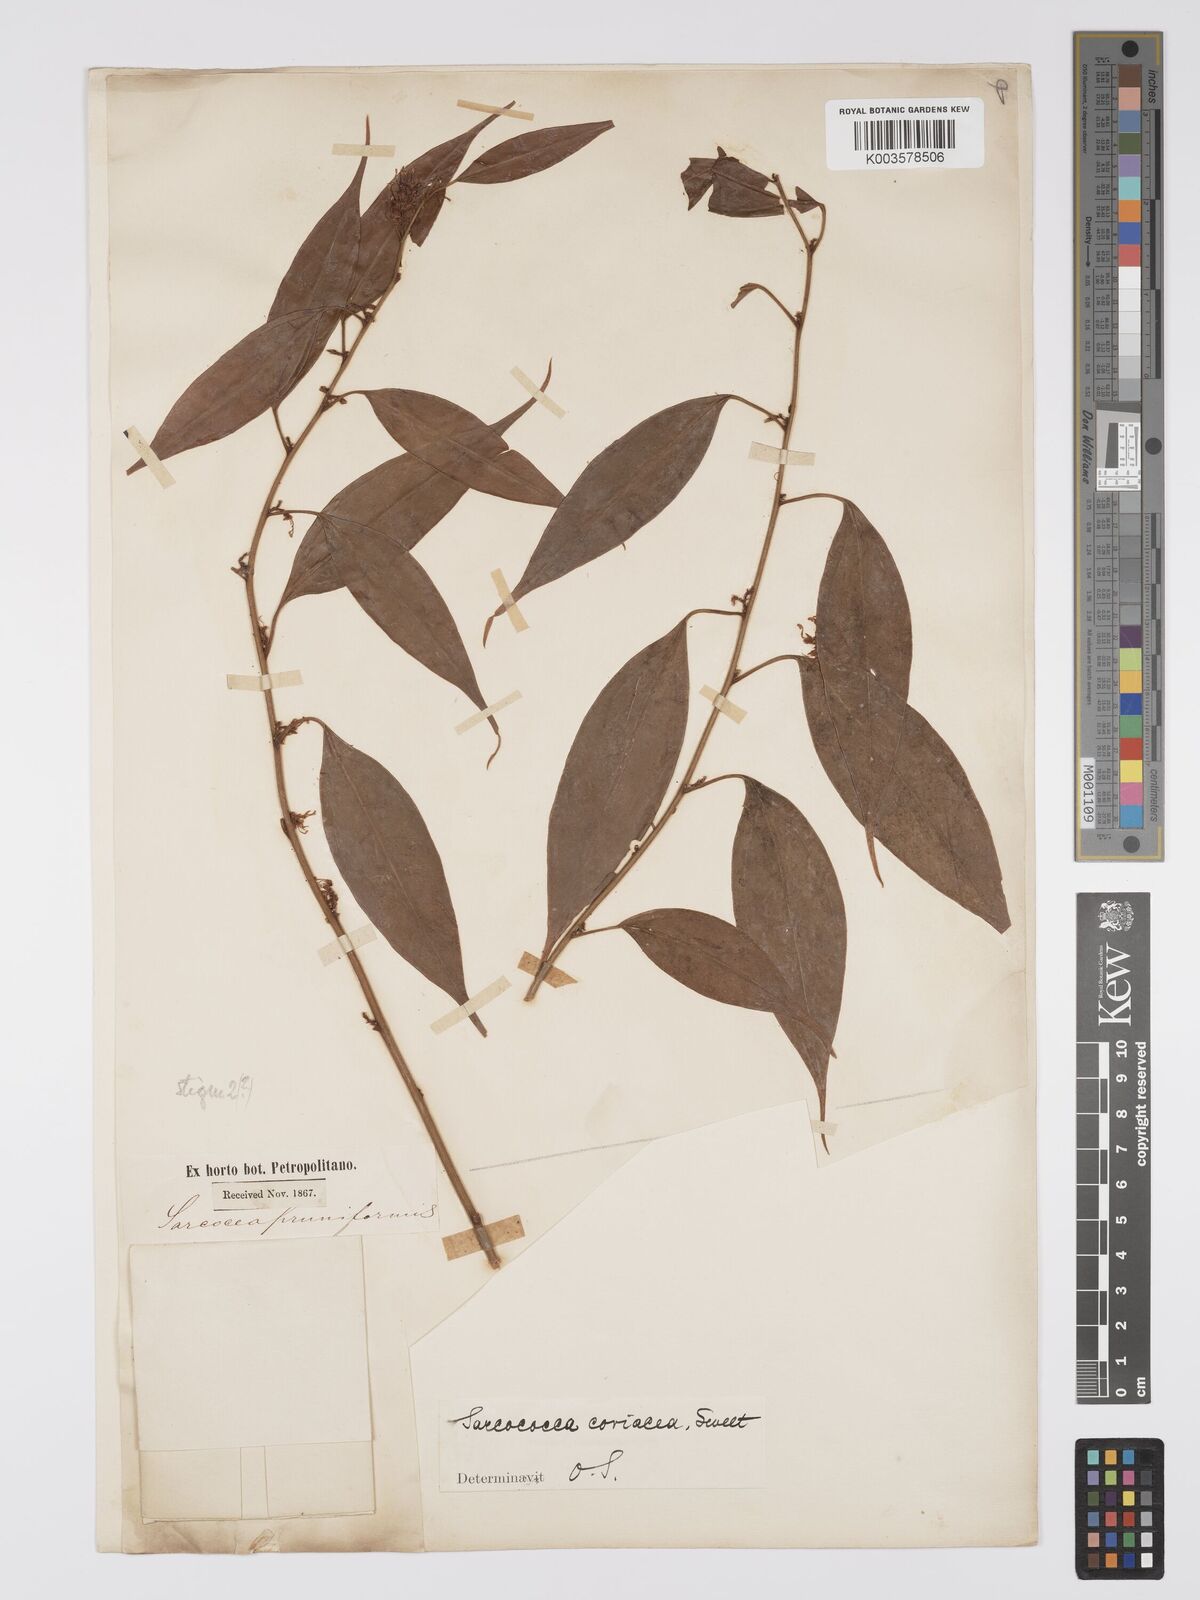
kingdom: Plantae
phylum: Tracheophyta
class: Magnoliopsida
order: Buxales
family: Buxaceae
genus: Sarcococca
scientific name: Sarcococca coriacea
